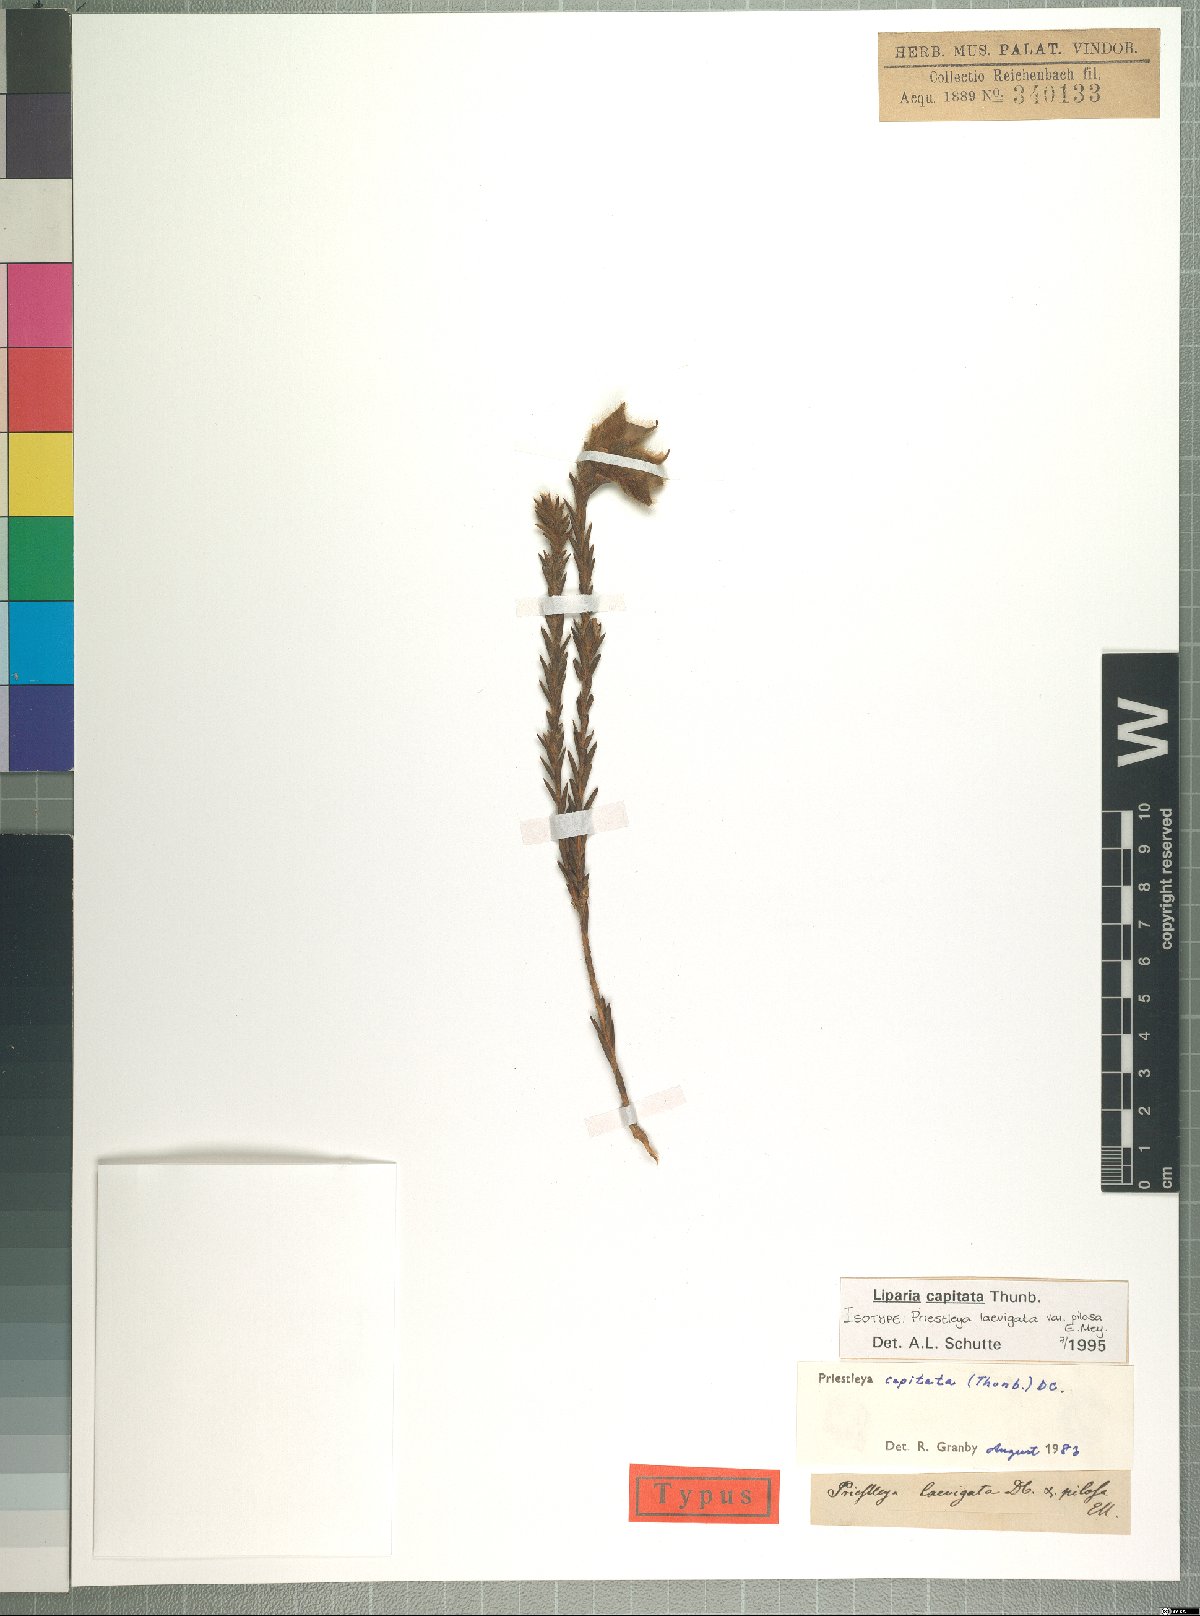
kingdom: Plantae
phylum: Tracheophyta
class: Magnoliopsida
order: Fabales
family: Fabaceae
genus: Liparia
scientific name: Liparia capitata
